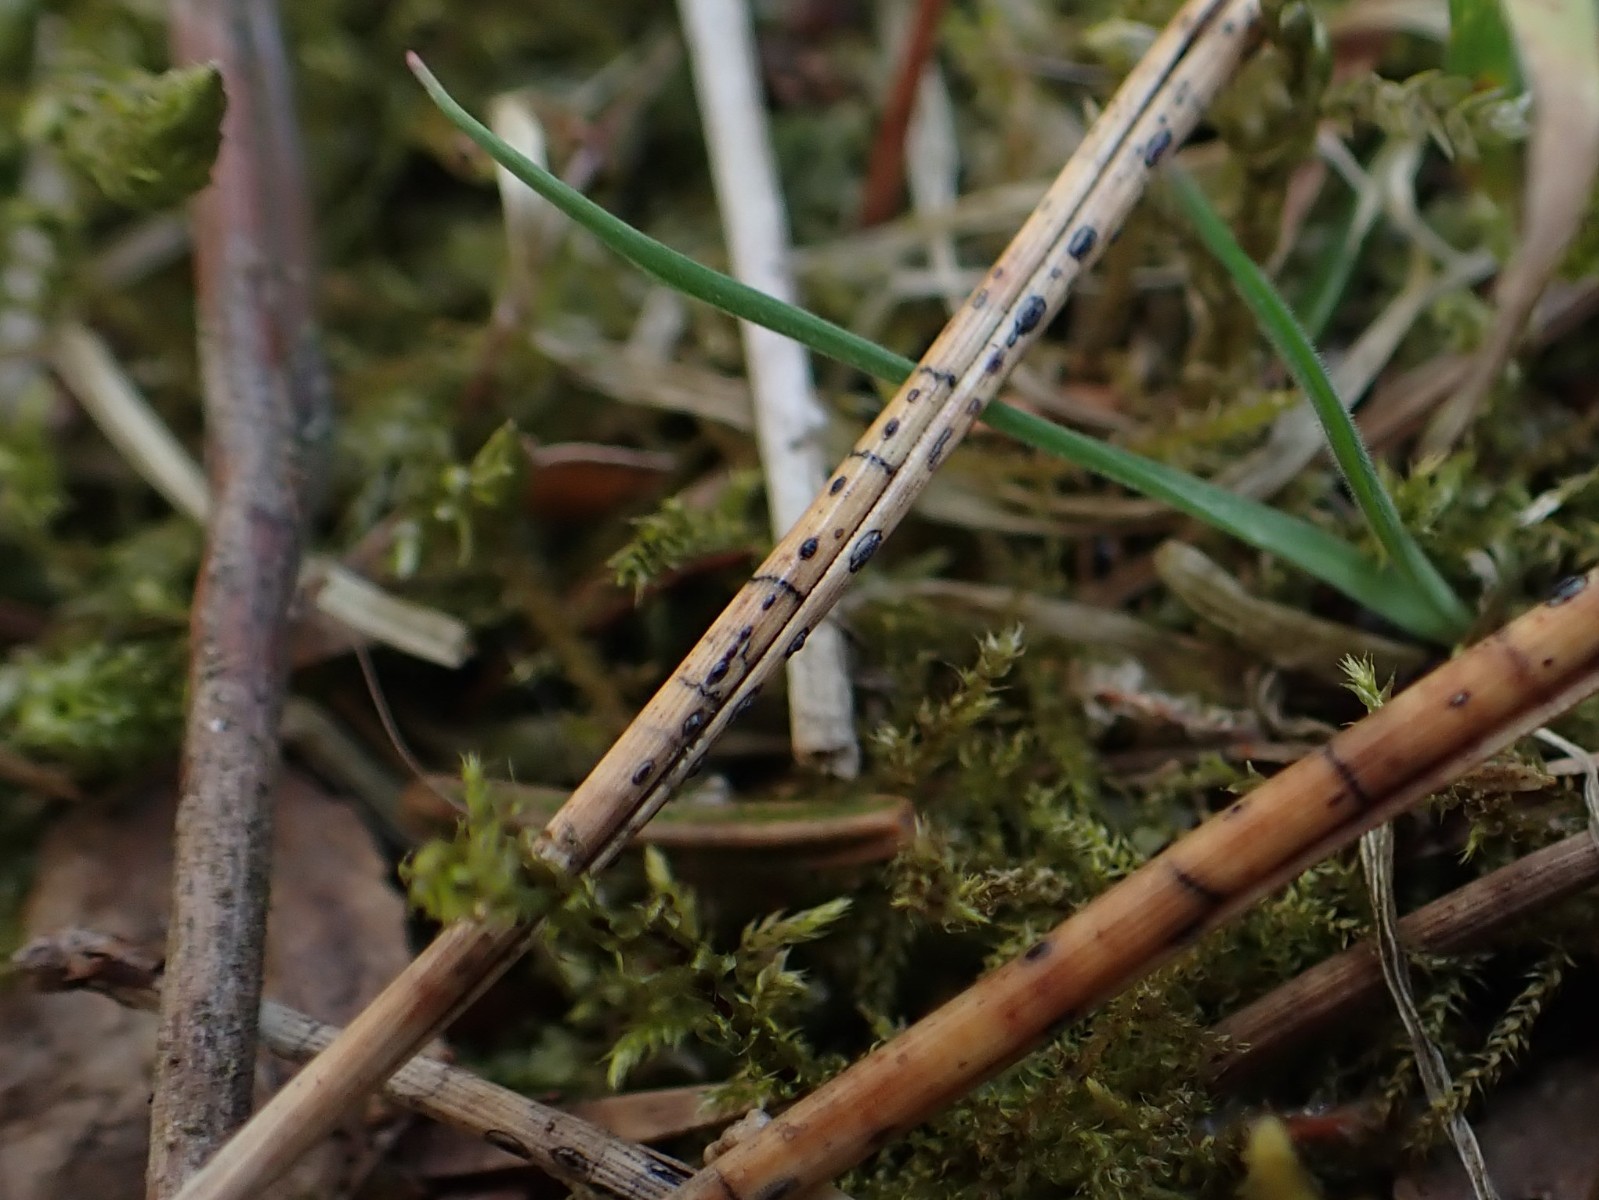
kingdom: Fungi
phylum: Ascomycota
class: Leotiomycetes
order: Rhytismatales
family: Rhytismataceae
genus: Lophodermium
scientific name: Lophodermium pinastri
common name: fyrre-fureplet
